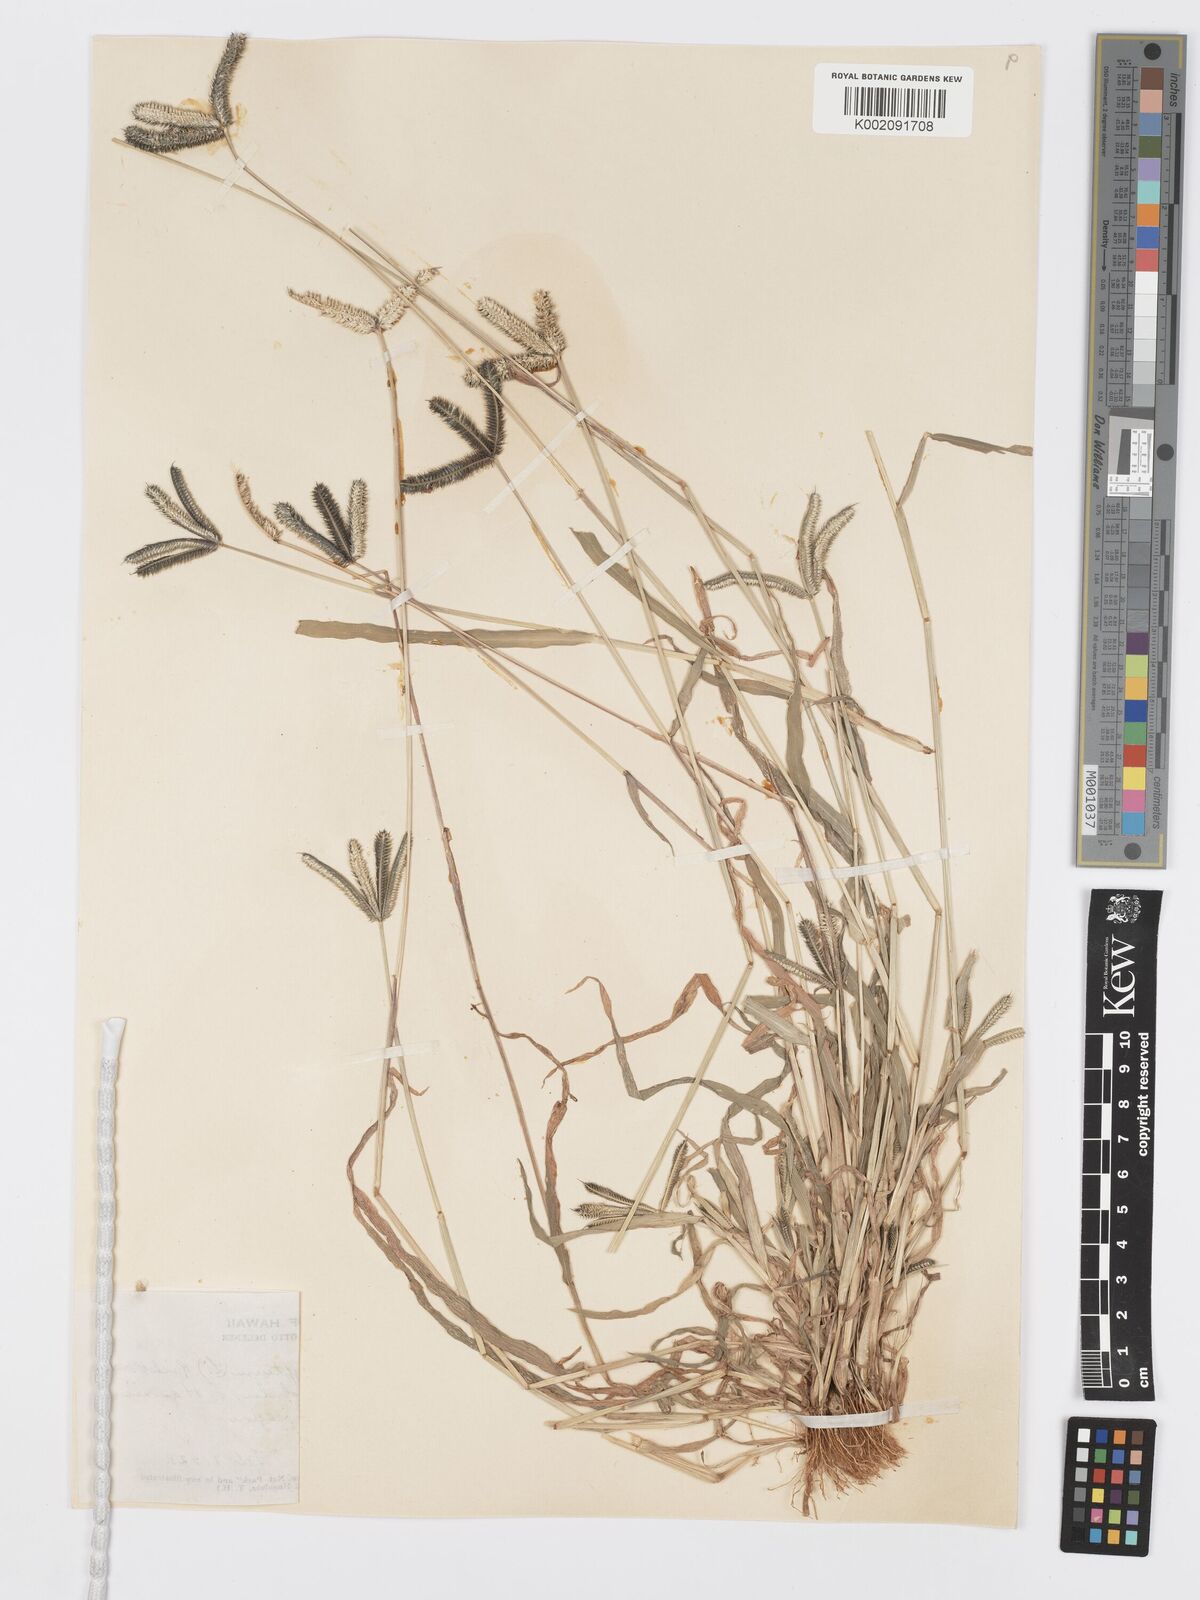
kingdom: Plantae
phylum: Tracheophyta
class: Liliopsida
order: Poales
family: Poaceae
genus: Dactyloctenium
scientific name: Dactyloctenium aegyptium
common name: Egyptian grass
